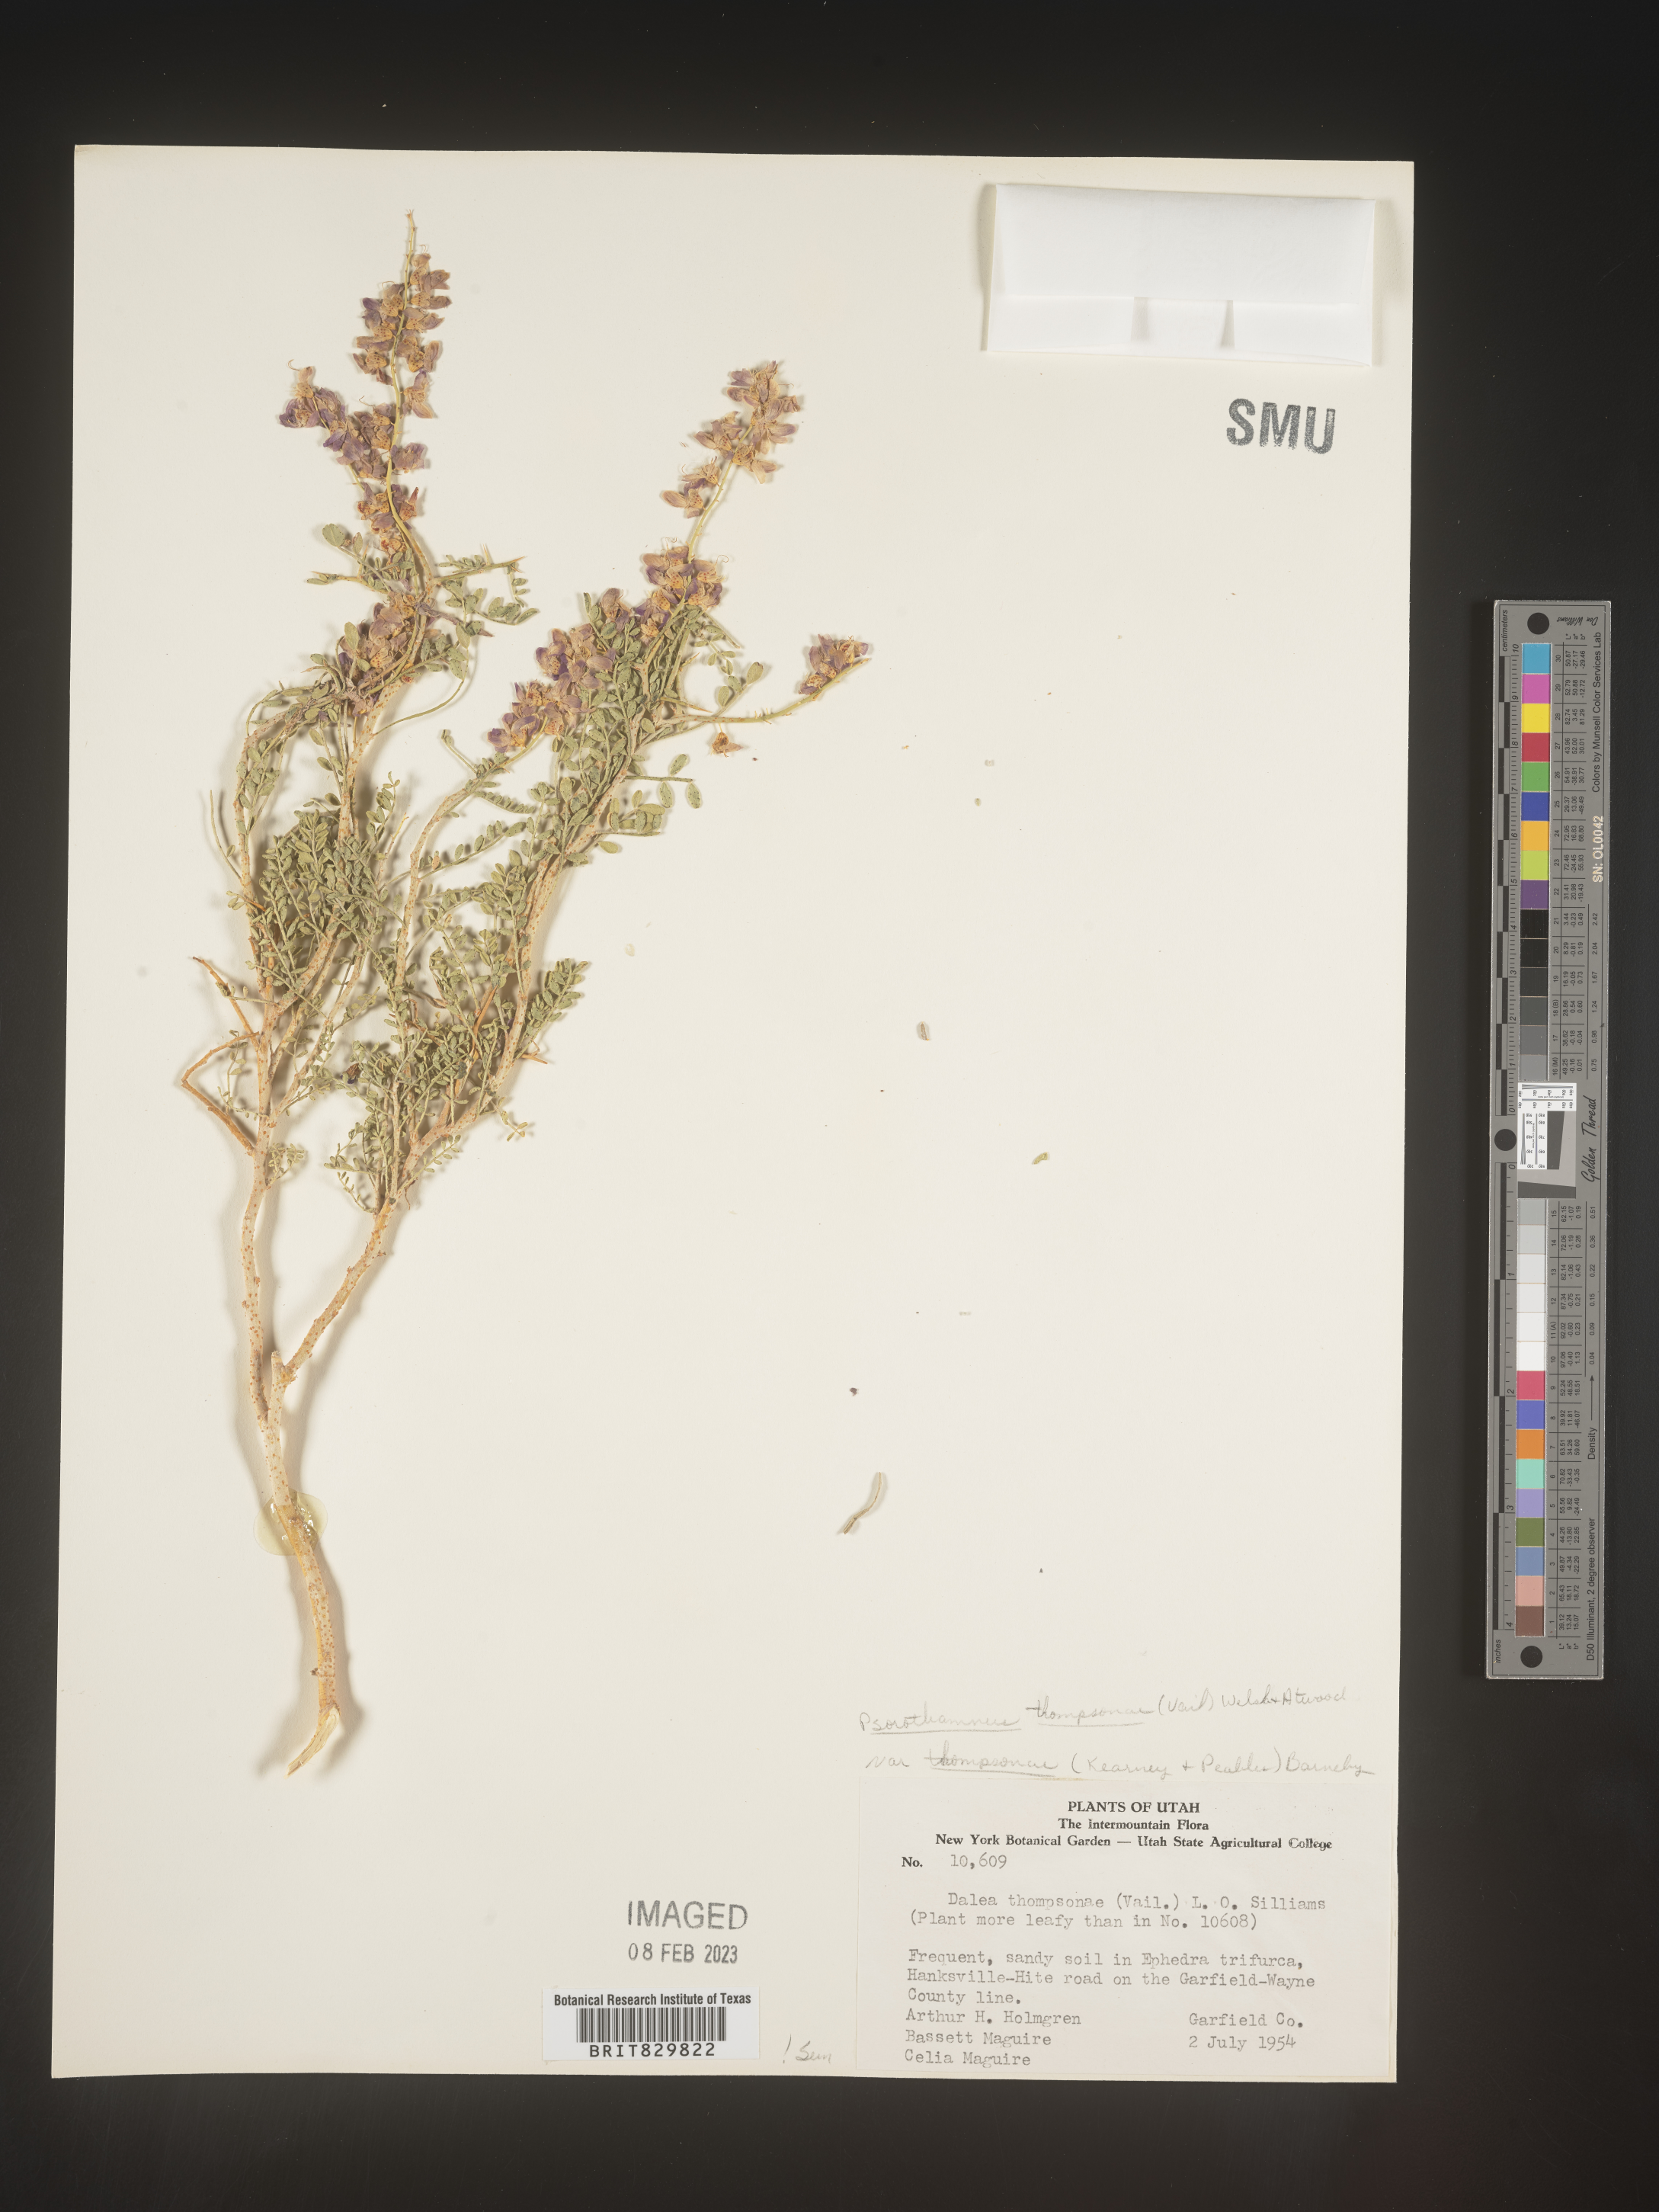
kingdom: Plantae
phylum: Tracheophyta
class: Magnoliopsida
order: Fabales
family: Fabaceae
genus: Psorothamnus
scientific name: Psorothamnus
